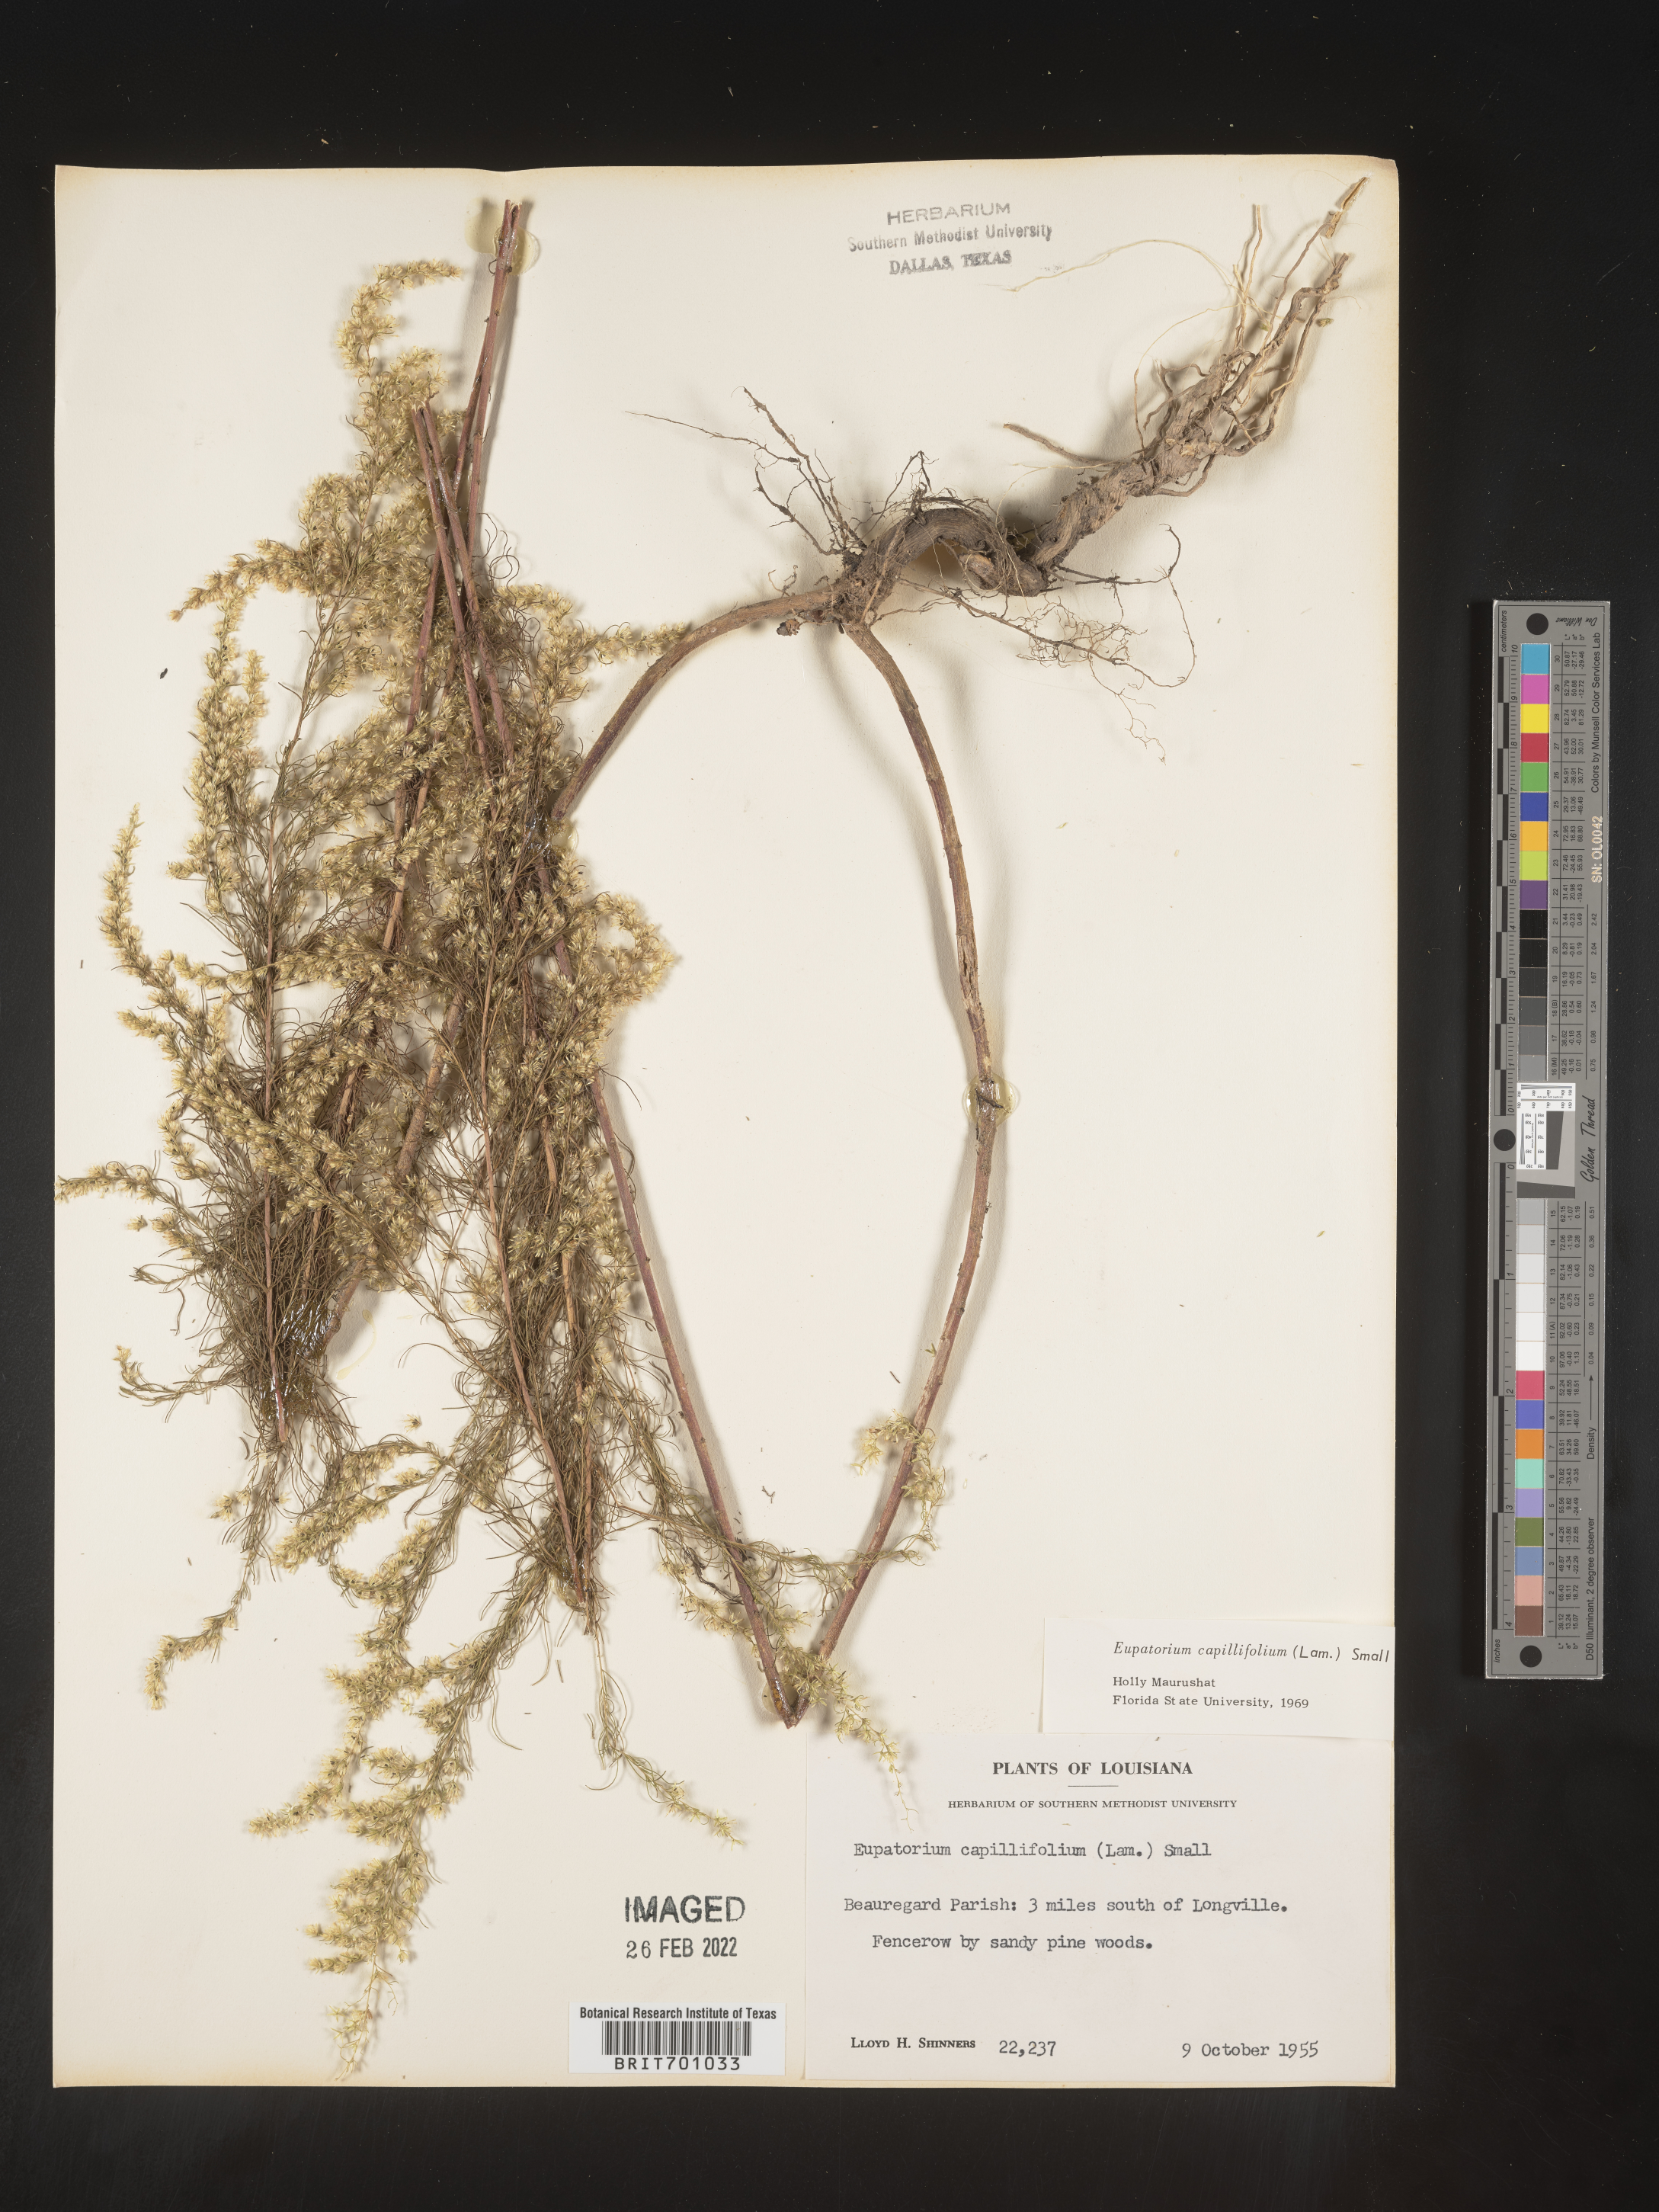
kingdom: Plantae
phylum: Tracheophyta
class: Magnoliopsida
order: Asterales
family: Asteraceae
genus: Eupatorium
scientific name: Eupatorium capillifolium
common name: Dog-fennel
